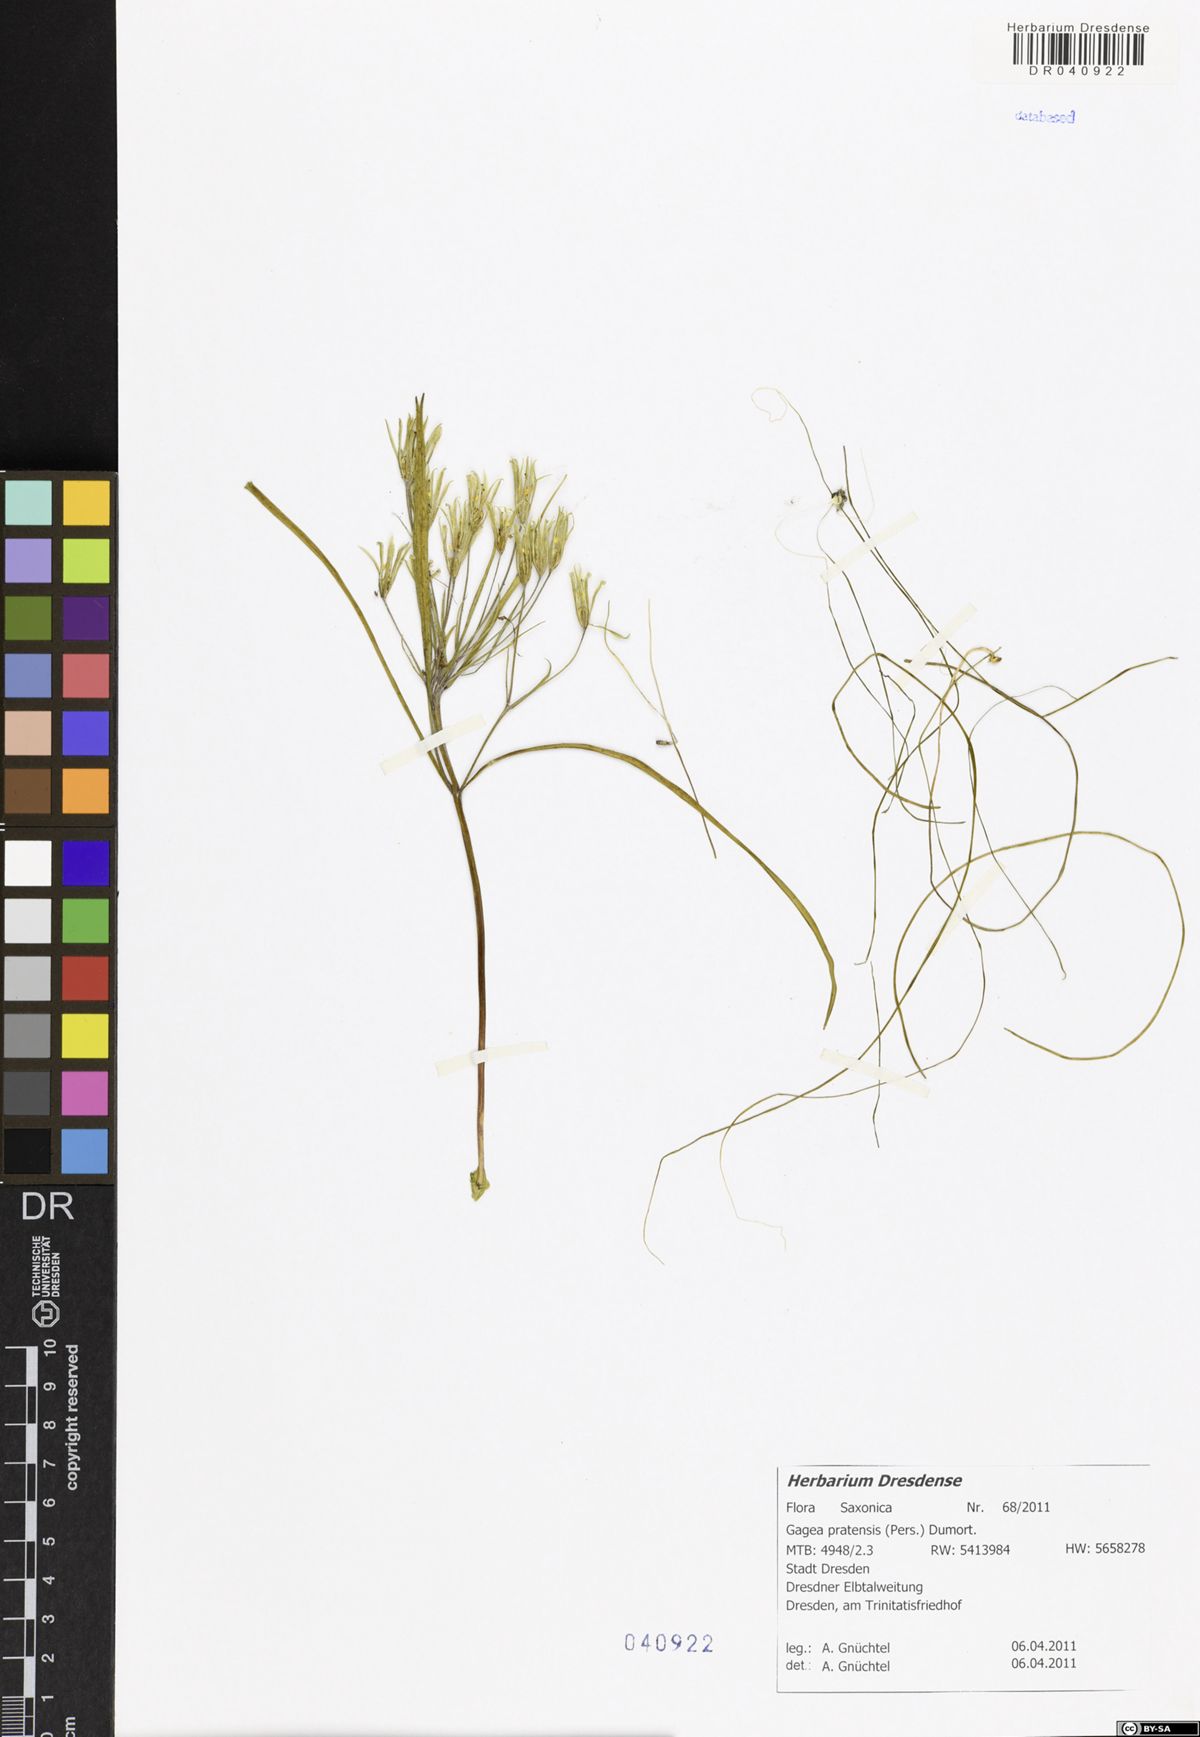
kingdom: Plantae
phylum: Tracheophyta
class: Liliopsida
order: Liliales
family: Liliaceae
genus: Gagea
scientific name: Gagea pratensis
